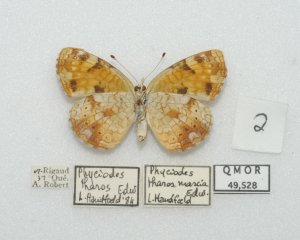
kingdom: Animalia
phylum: Arthropoda
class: Insecta
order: Lepidoptera
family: Nymphalidae
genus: Phyciodes
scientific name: Phyciodes tharos
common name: Northern Crescent
